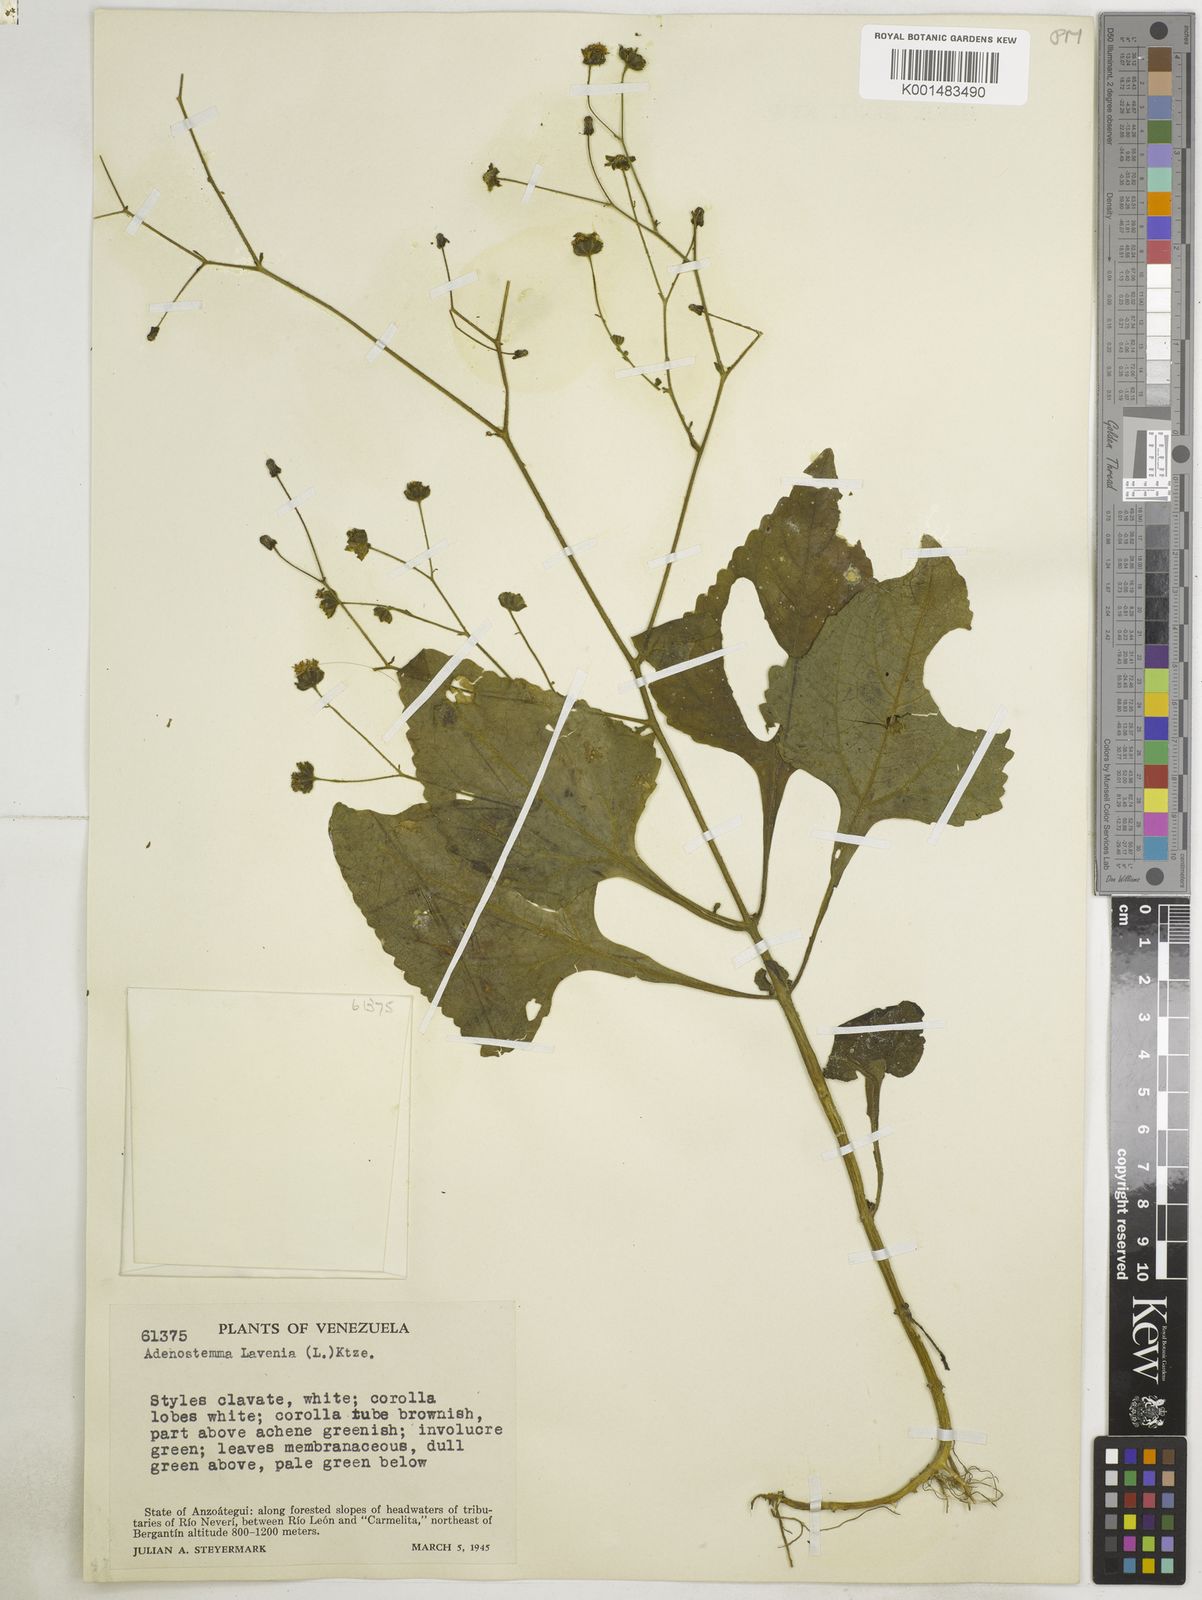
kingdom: Plantae
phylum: Tracheophyta
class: Magnoliopsida
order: Asterales
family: Asteraceae
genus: Adenostemma
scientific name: Adenostemma lavenia
